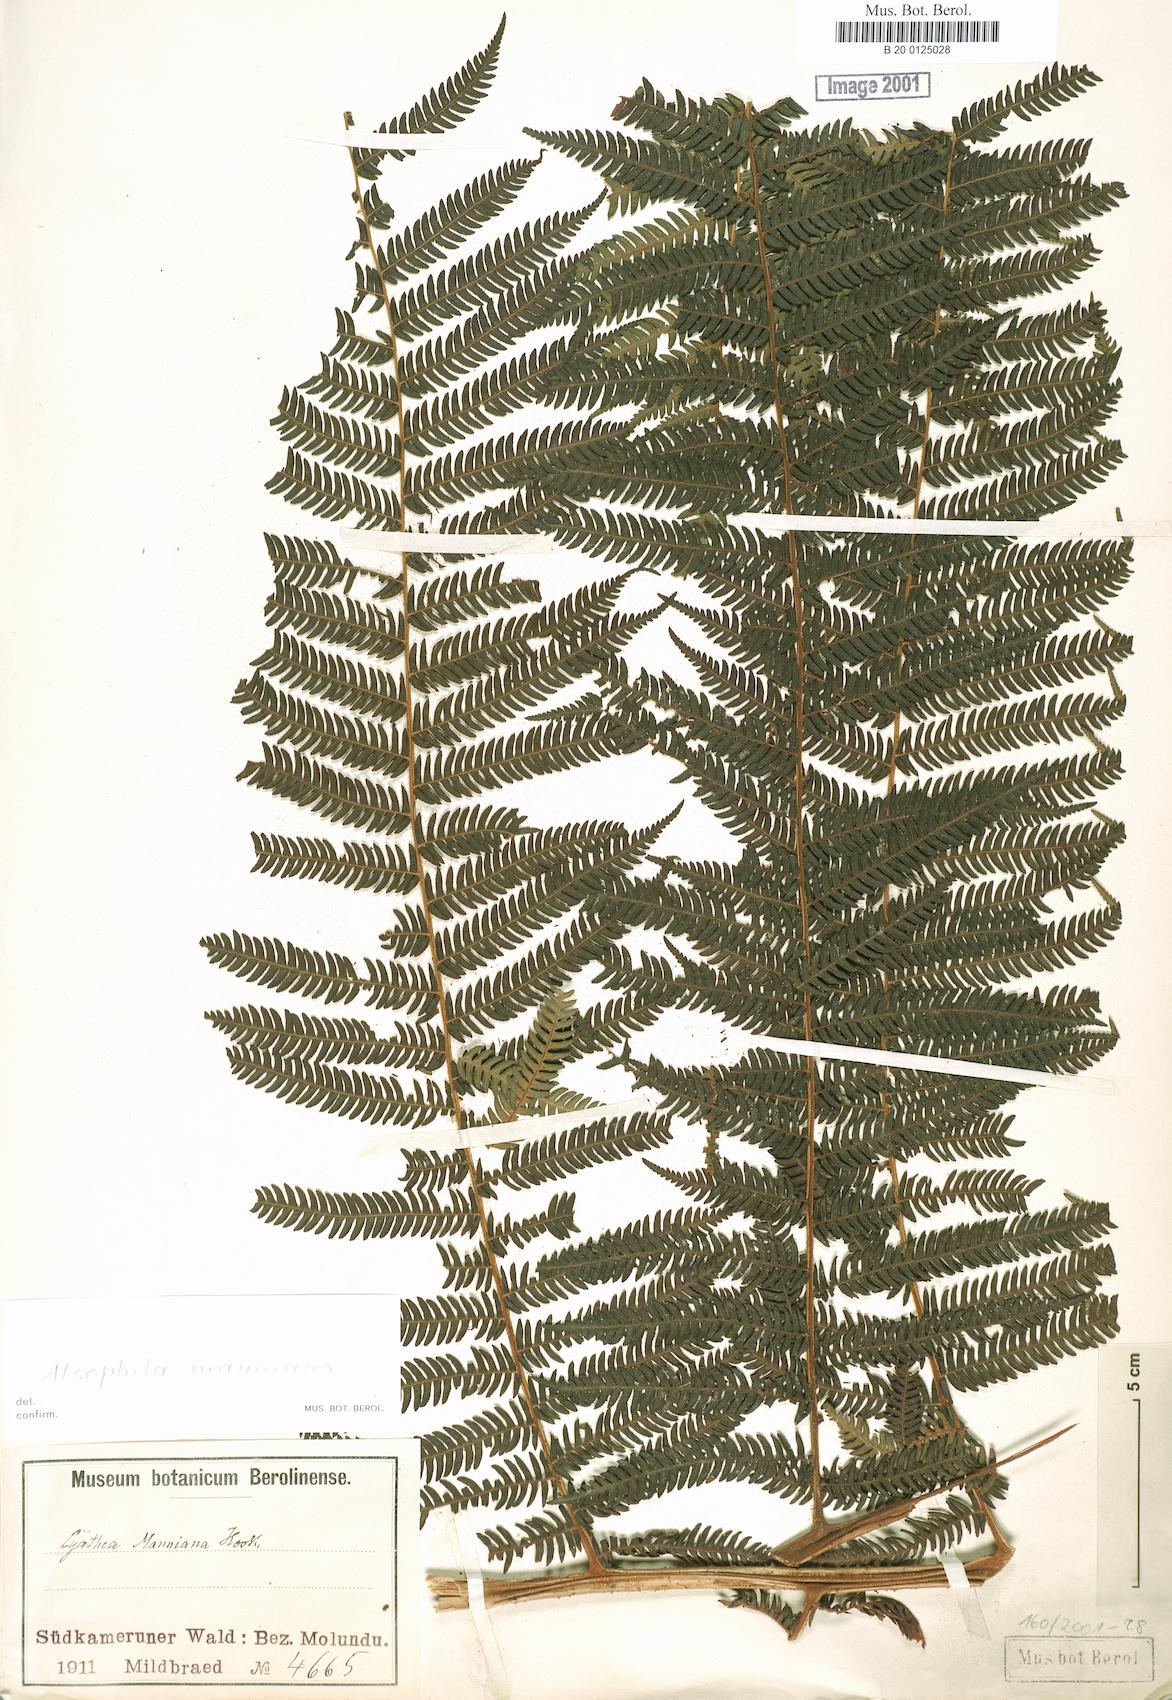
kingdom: Plantae
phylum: Tracheophyta
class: Polypodiopsida
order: Cyatheales
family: Cyatheaceae
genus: Alsophila
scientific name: Alsophila manniana
